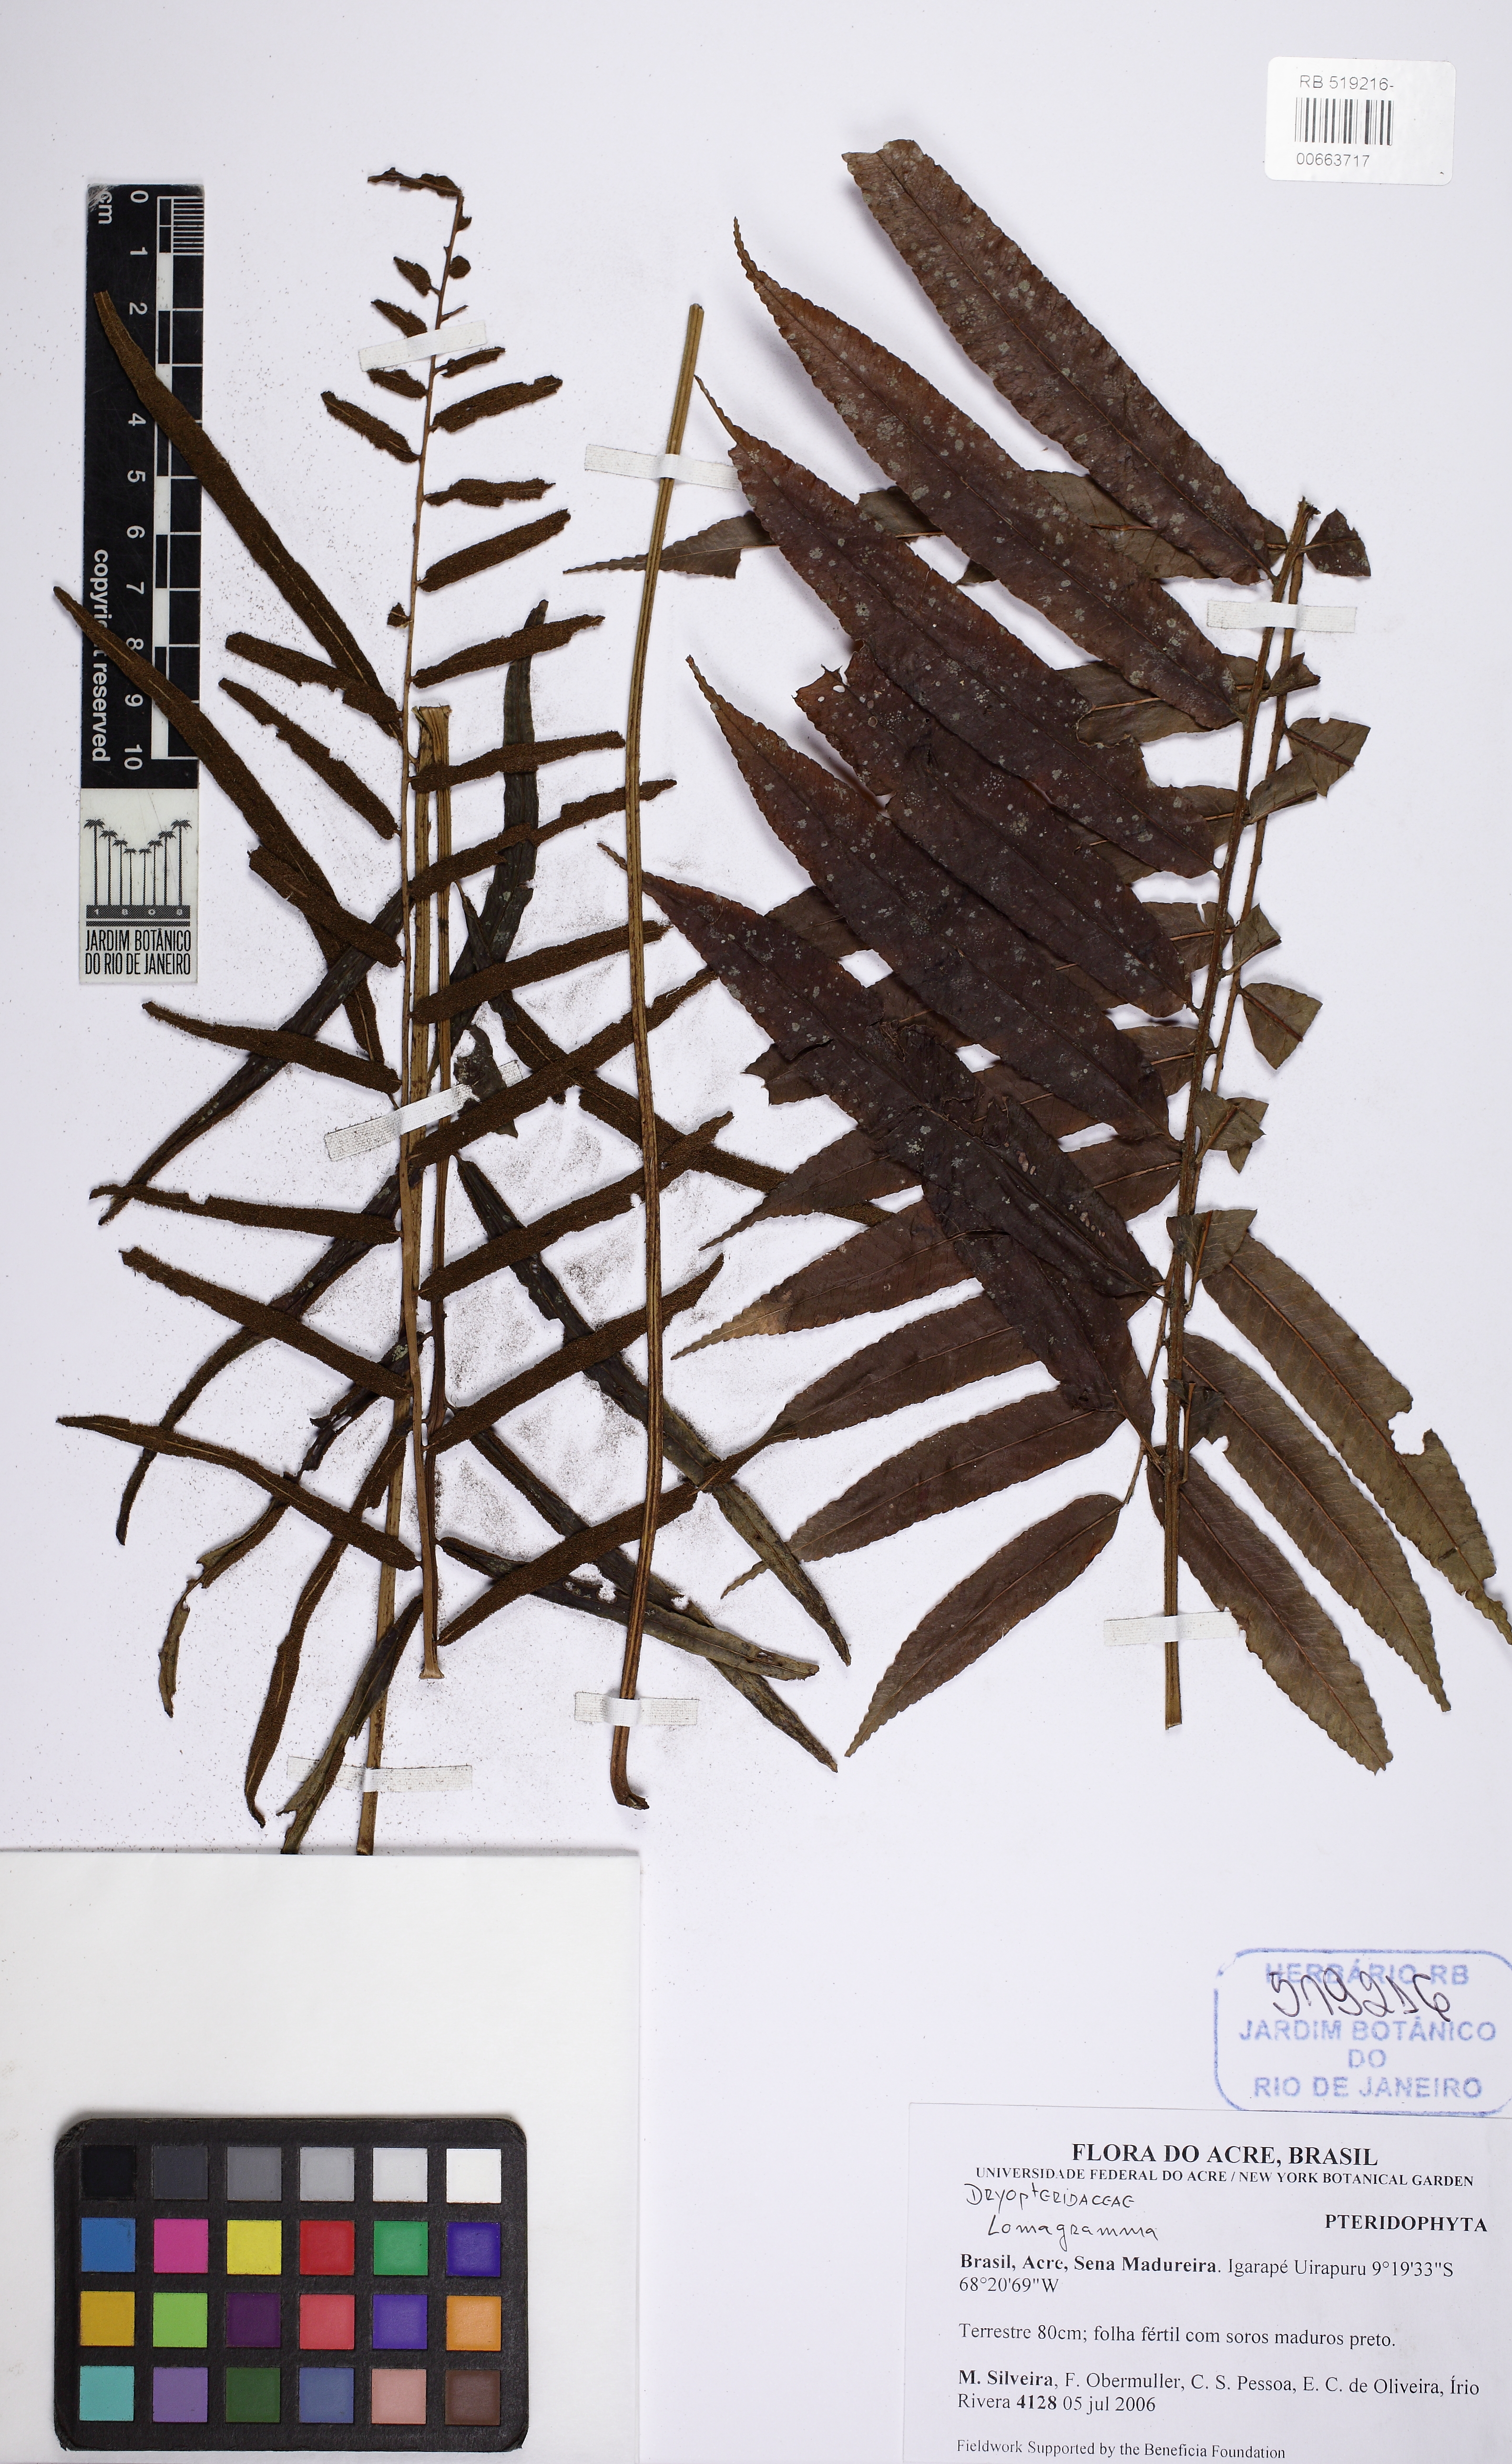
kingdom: Plantae
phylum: Tracheophyta
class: Polypodiopsida
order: Polypodiales
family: Dryopteridaceae
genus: Lomagramma
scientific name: Lomagramma
